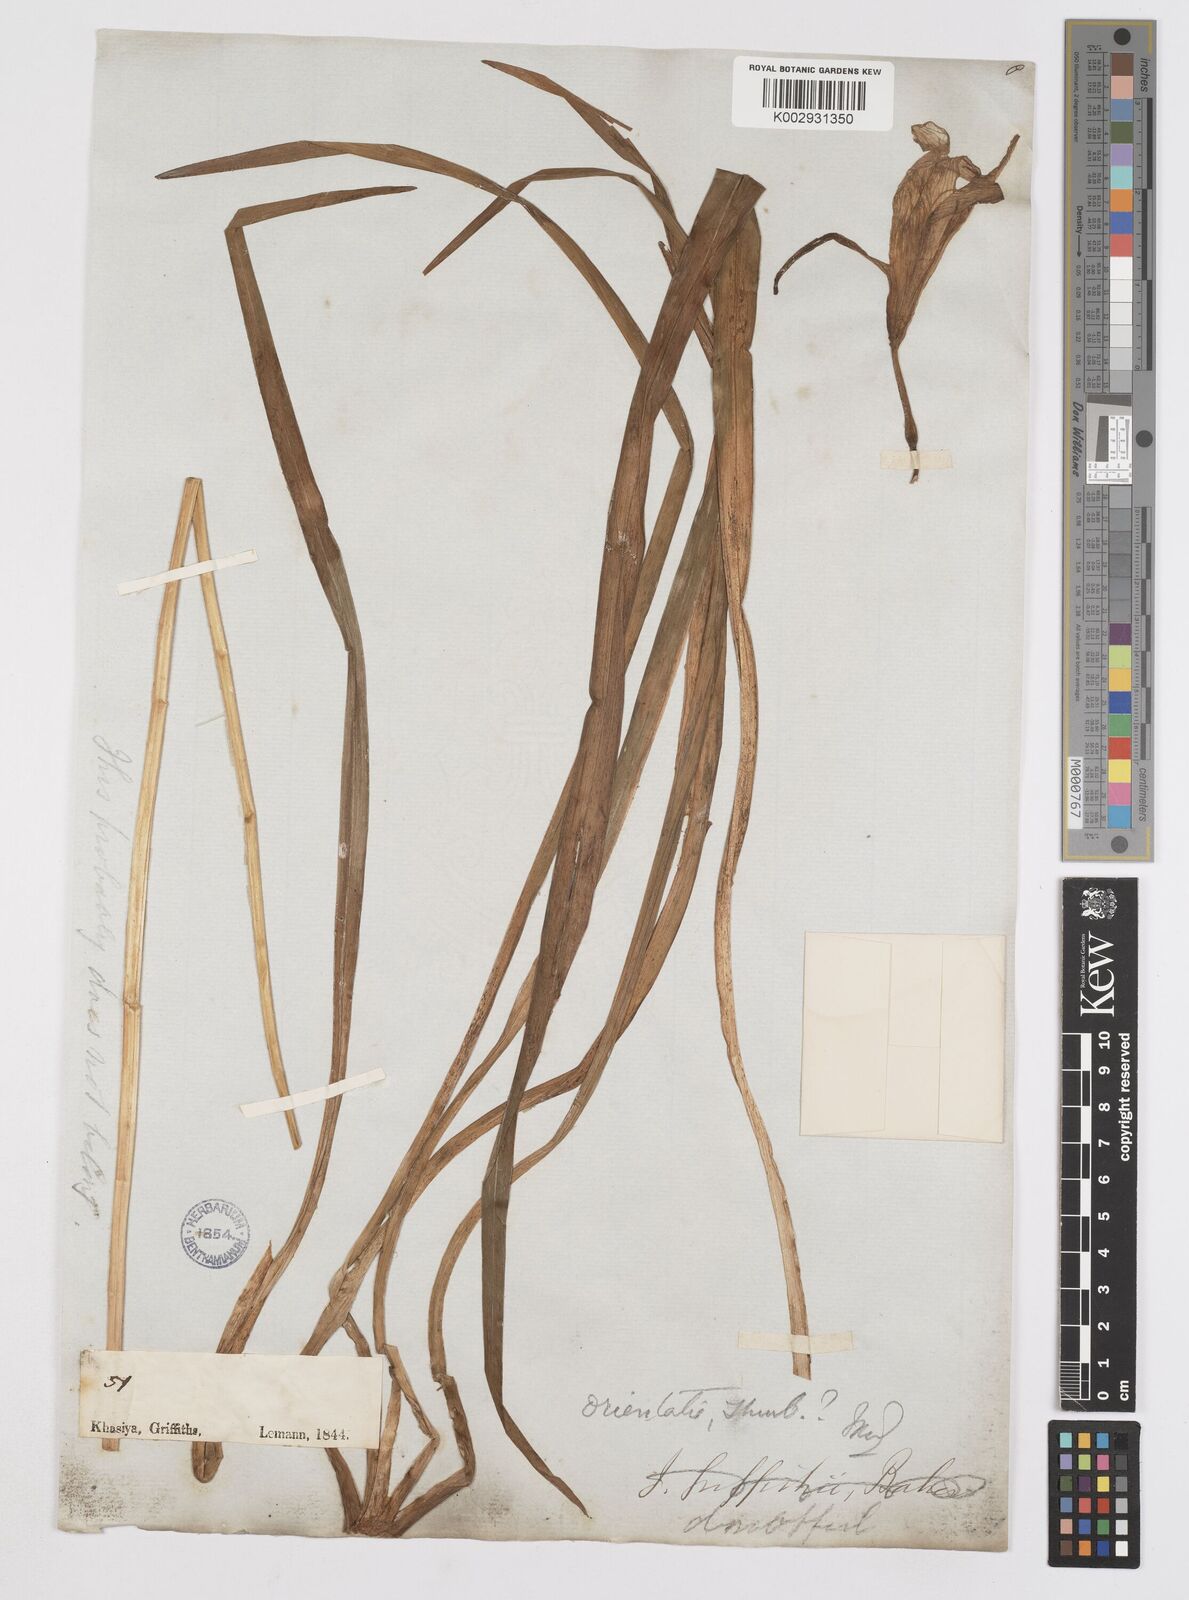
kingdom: Plantae
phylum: Tracheophyta
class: Liliopsida
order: Asparagales
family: Iridaceae
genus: Iris
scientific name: Iris
